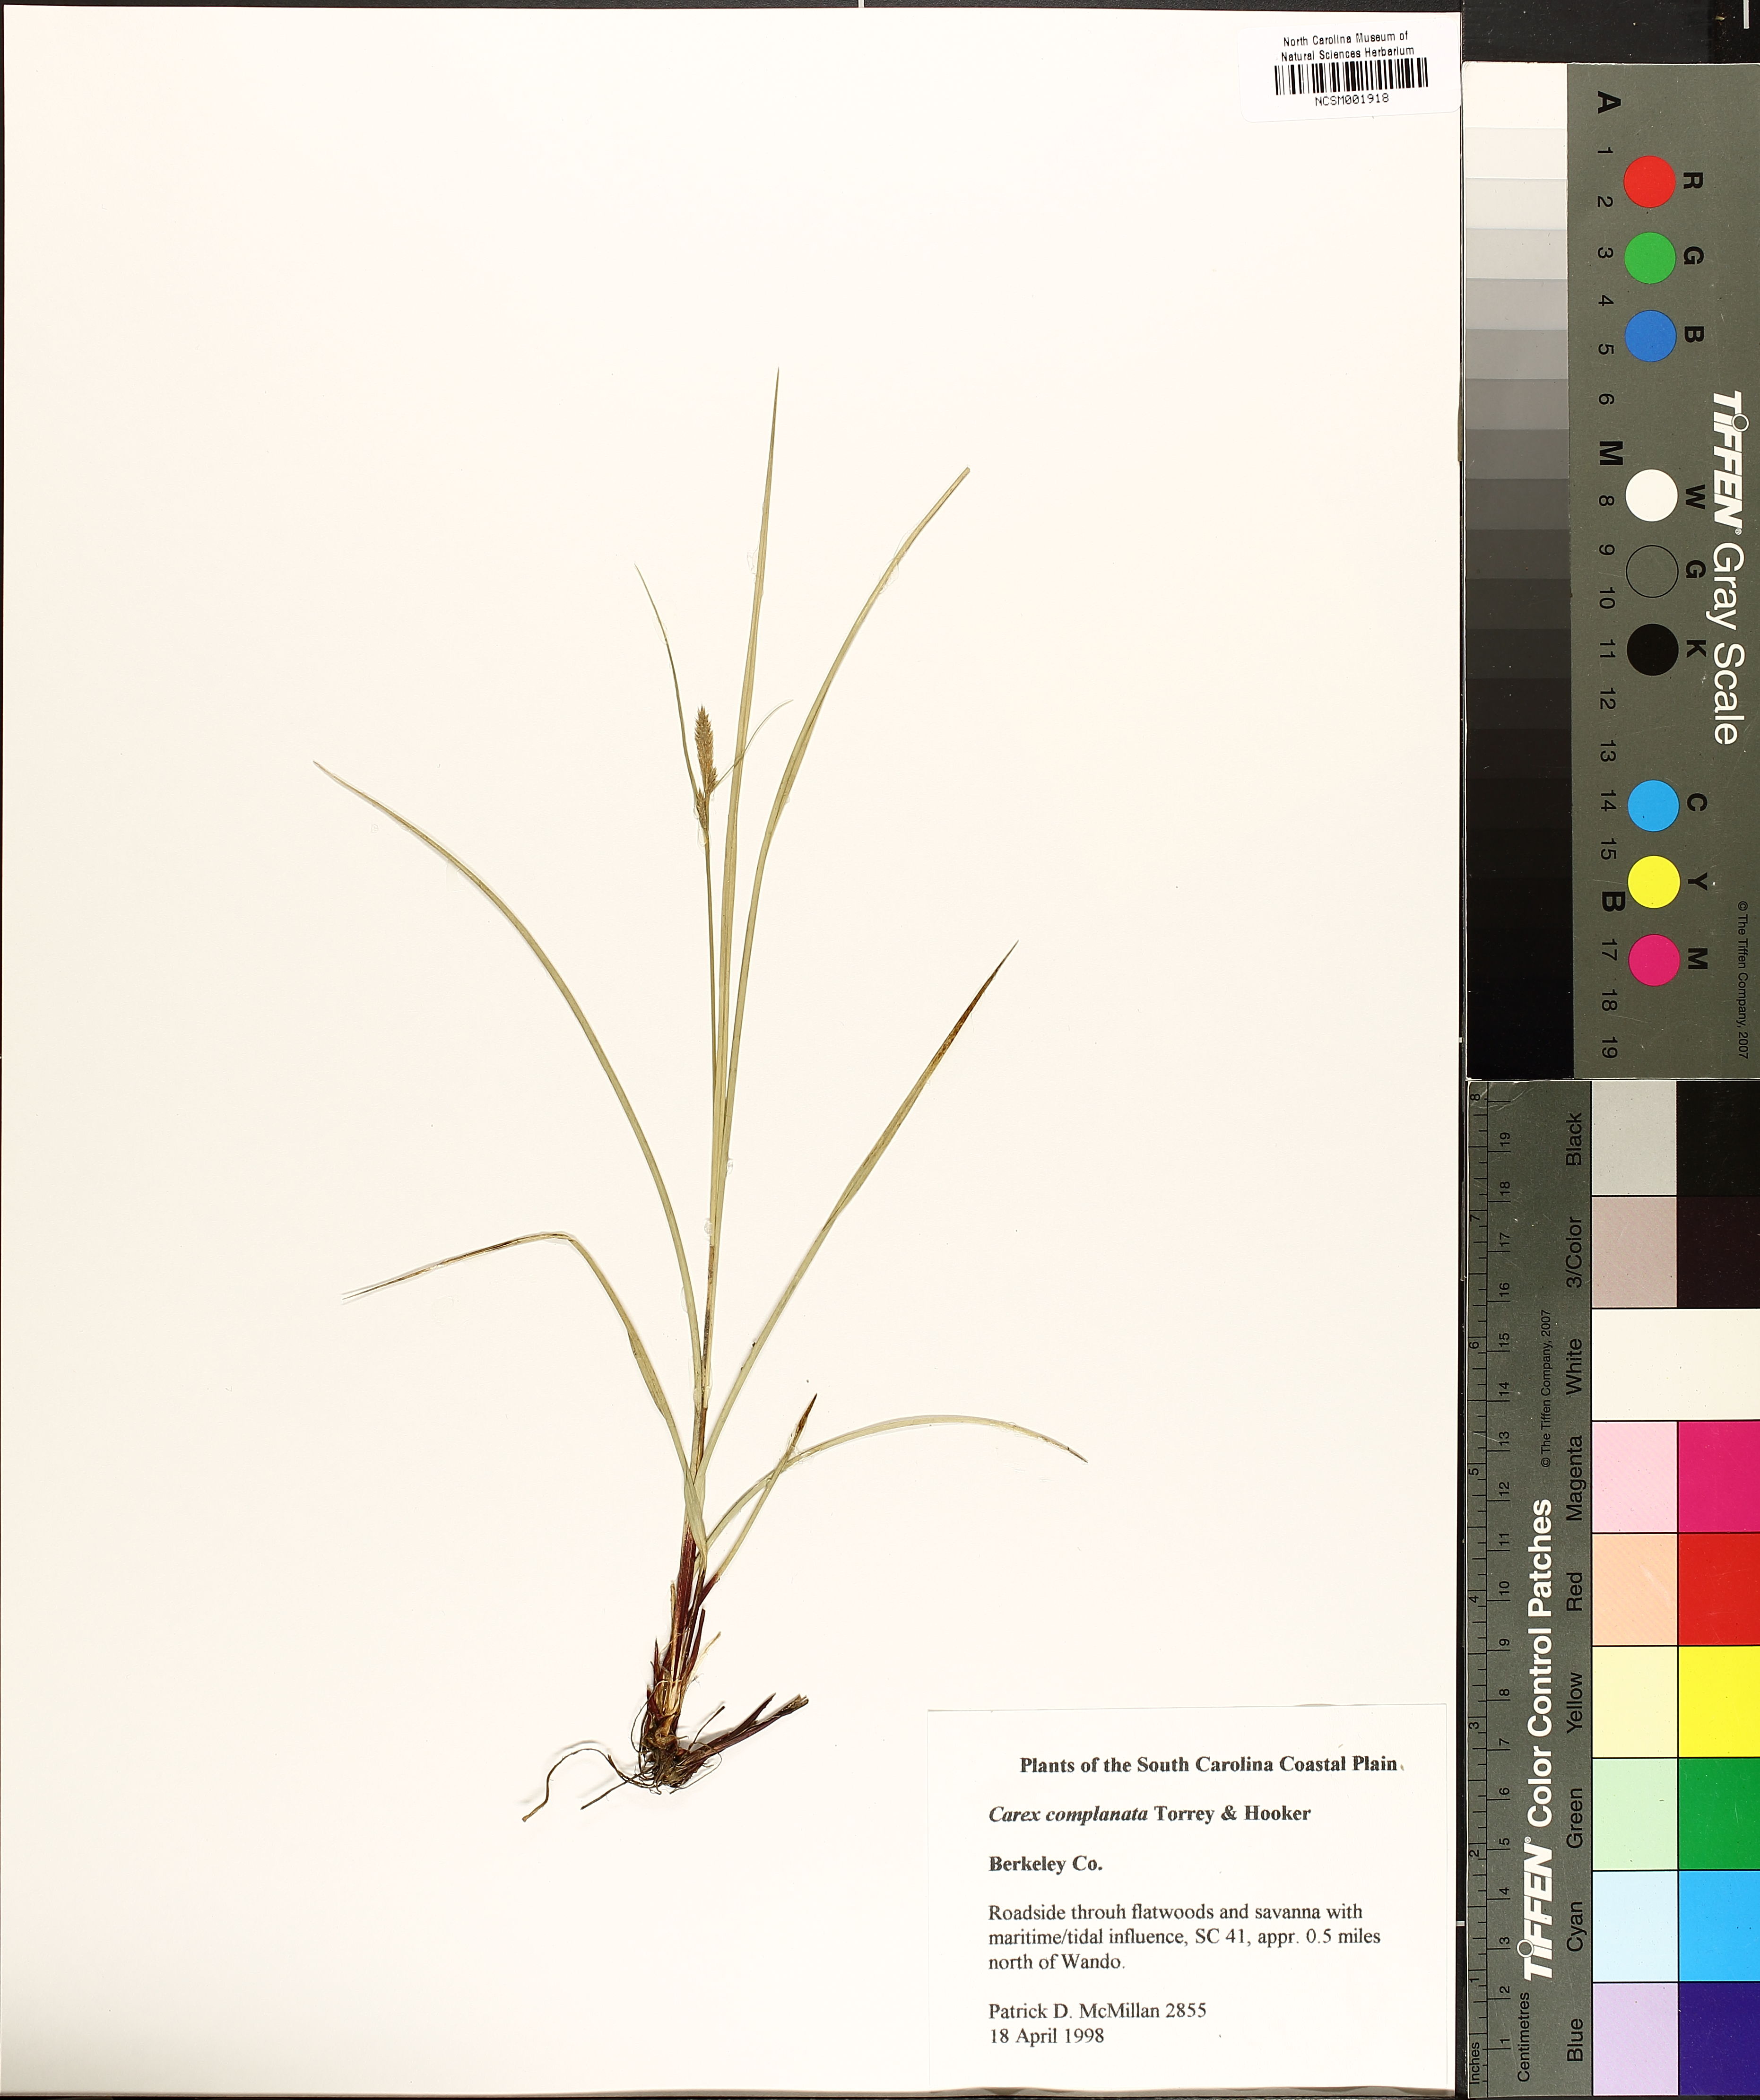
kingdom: Plantae
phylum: Tracheophyta
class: Liliopsida
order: Poales
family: Cyperaceae
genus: Carex
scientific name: Carex complanata
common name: Hirsute sedge
